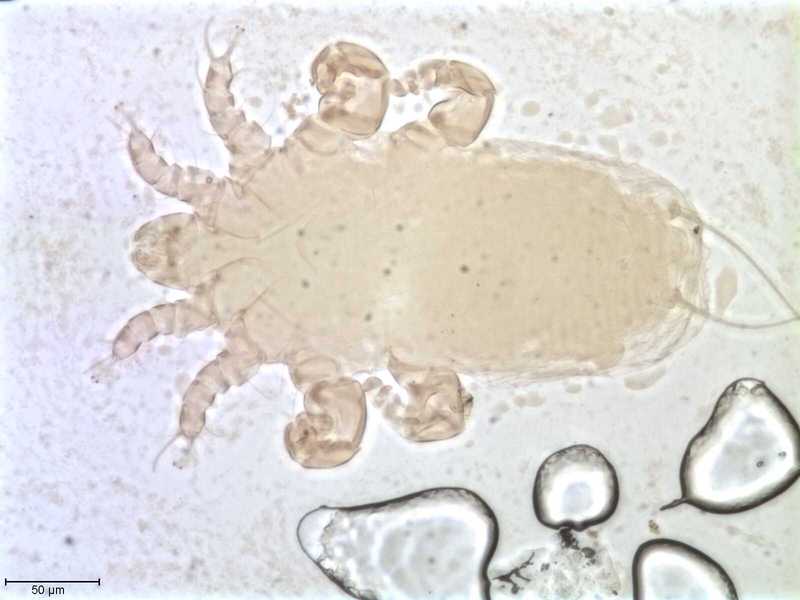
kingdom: Animalia
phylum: Arthropoda
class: Arachnida
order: Sarcoptiformes
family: Myocoptidae
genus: Gliricoptes
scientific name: Gliricoptes betulinus
